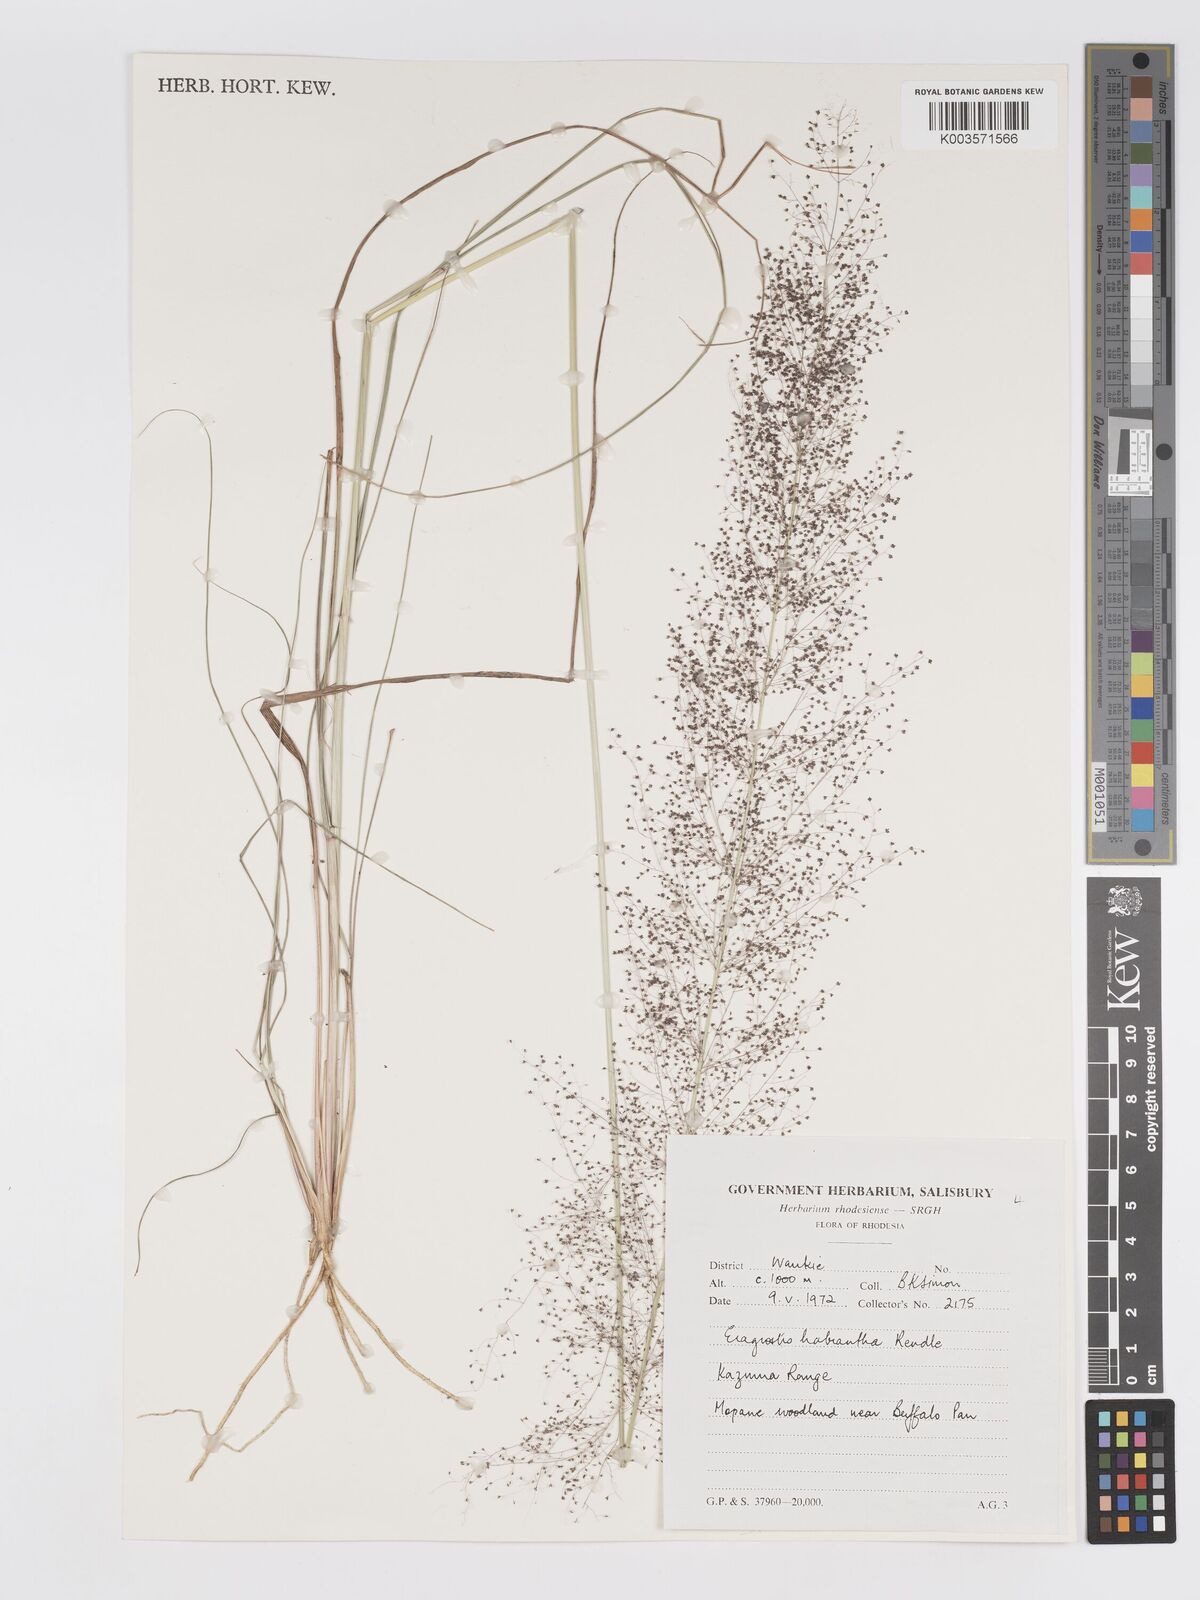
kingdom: Plantae
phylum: Tracheophyta
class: Liliopsida
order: Poales
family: Poaceae
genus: Eragrostis
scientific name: Eragrostis habrantha
